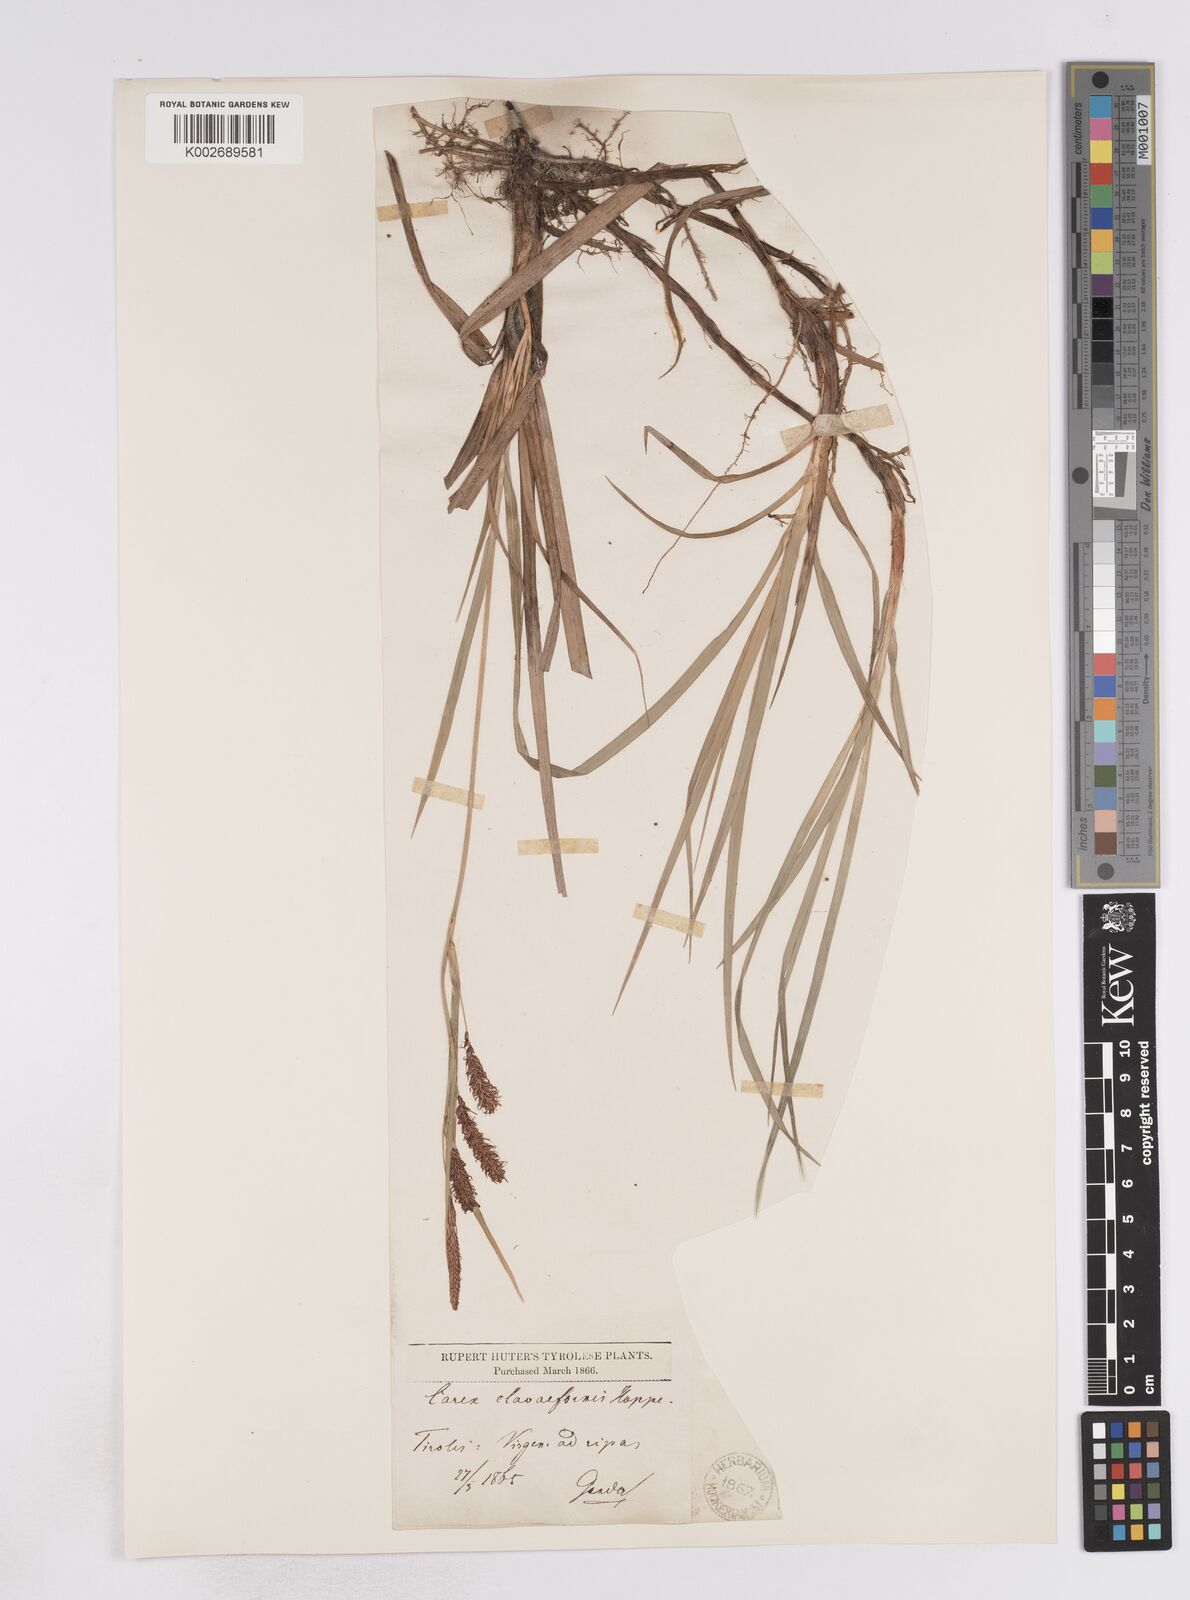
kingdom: Plantae
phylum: Tracheophyta
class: Liliopsida
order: Poales
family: Cyperaceae
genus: Carex
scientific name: Carex flacca
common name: Glaucous sedge
